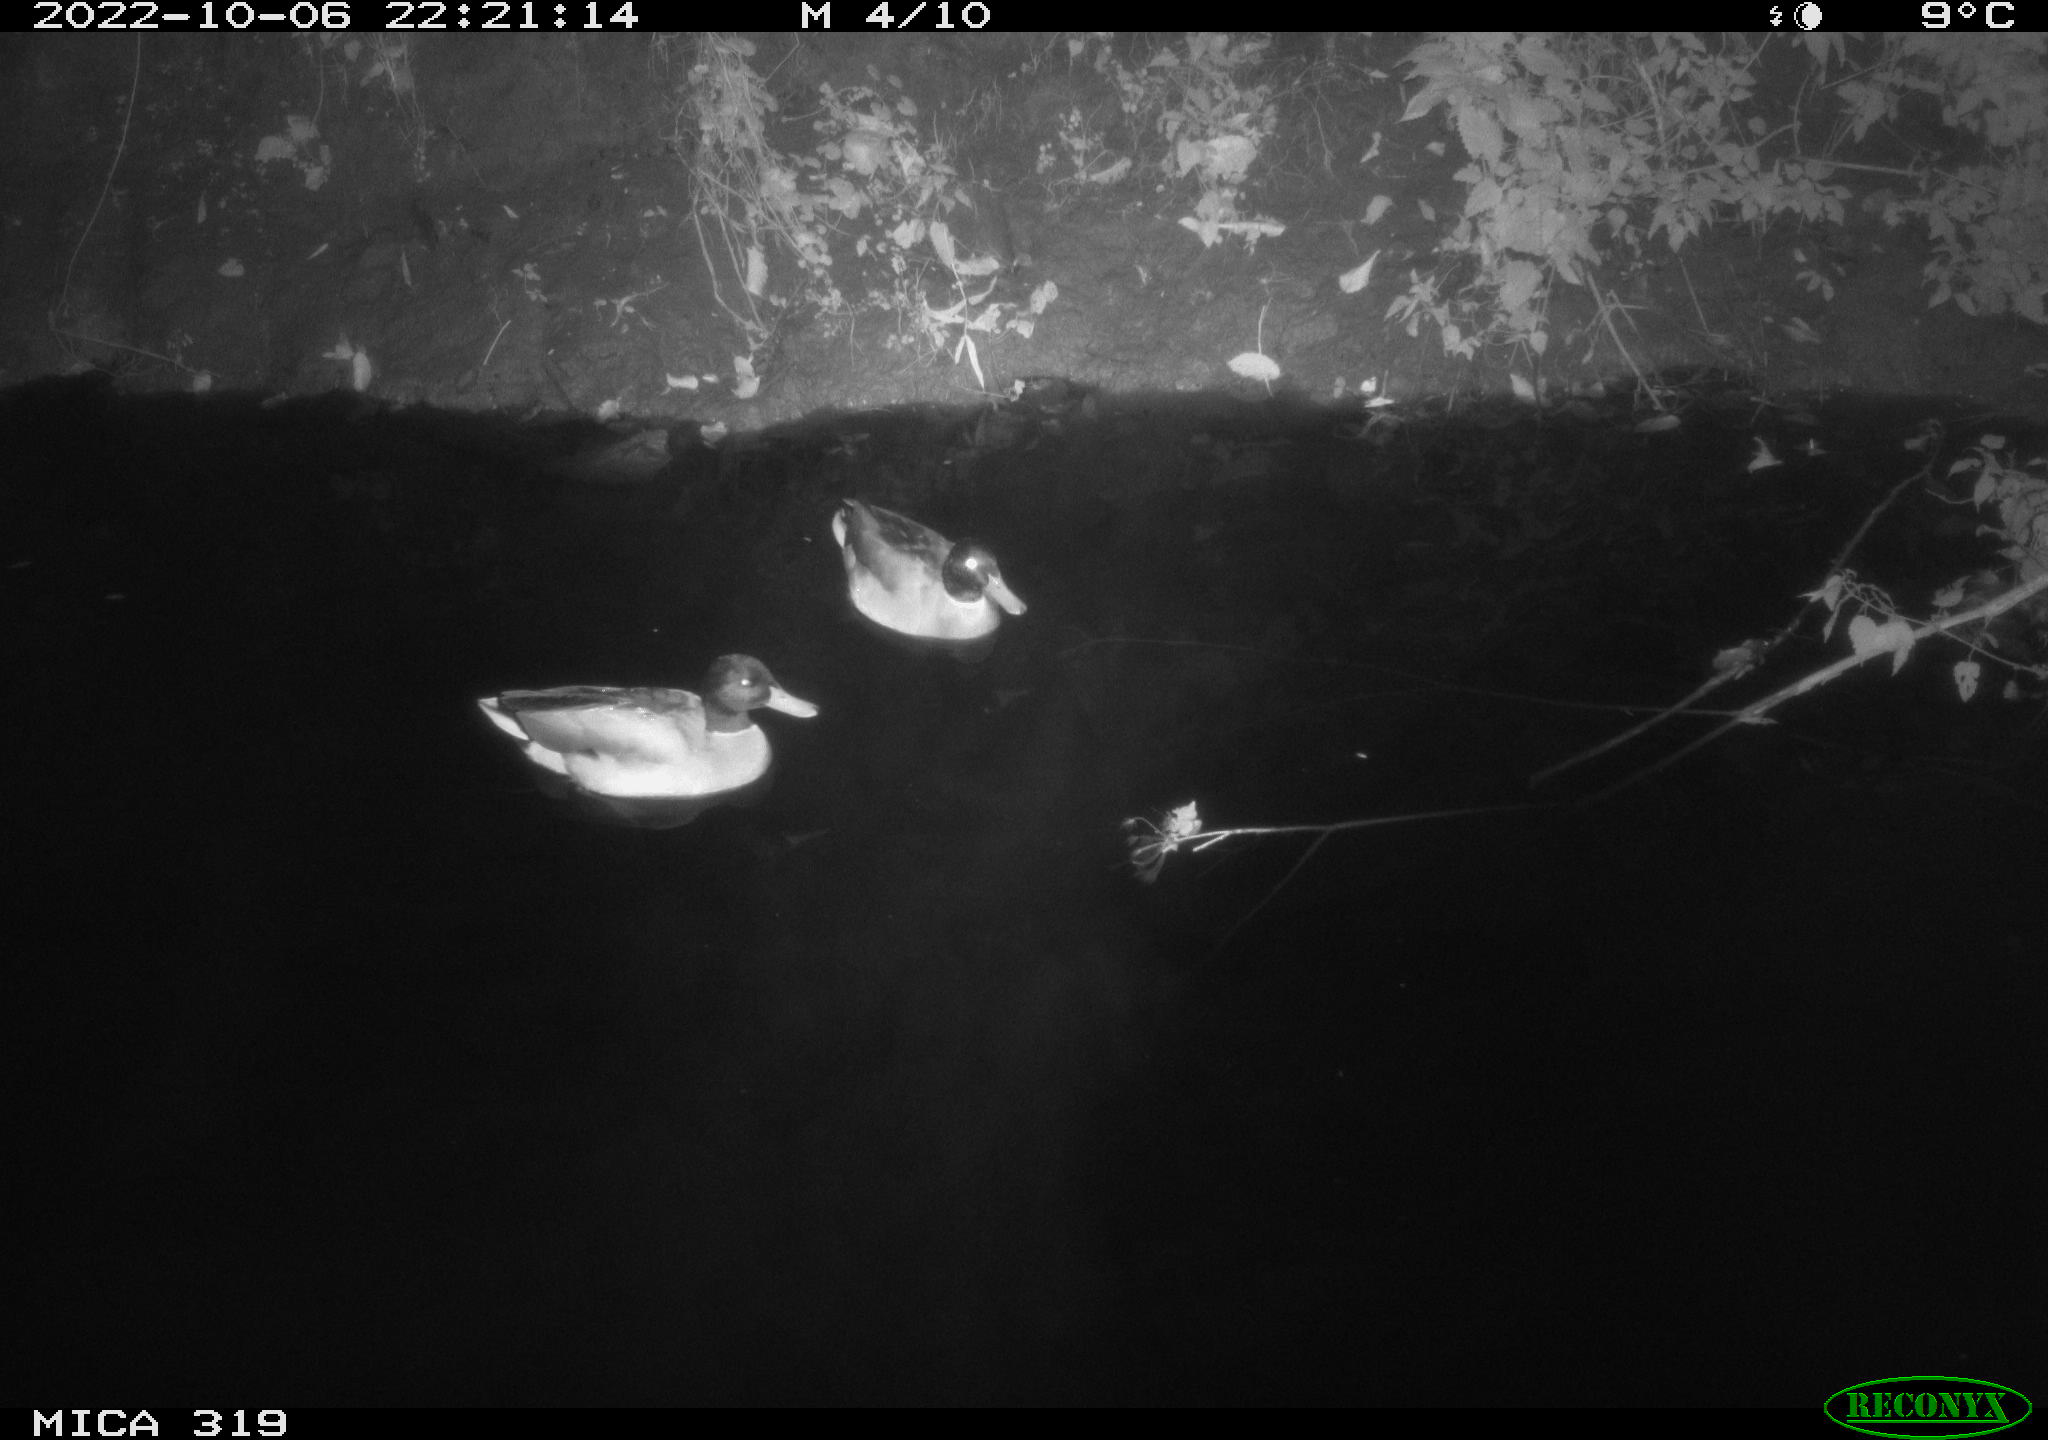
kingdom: Animalia
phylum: Chordata
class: Aves
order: Anseriformes
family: Anatidae
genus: Anas
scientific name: Anas
